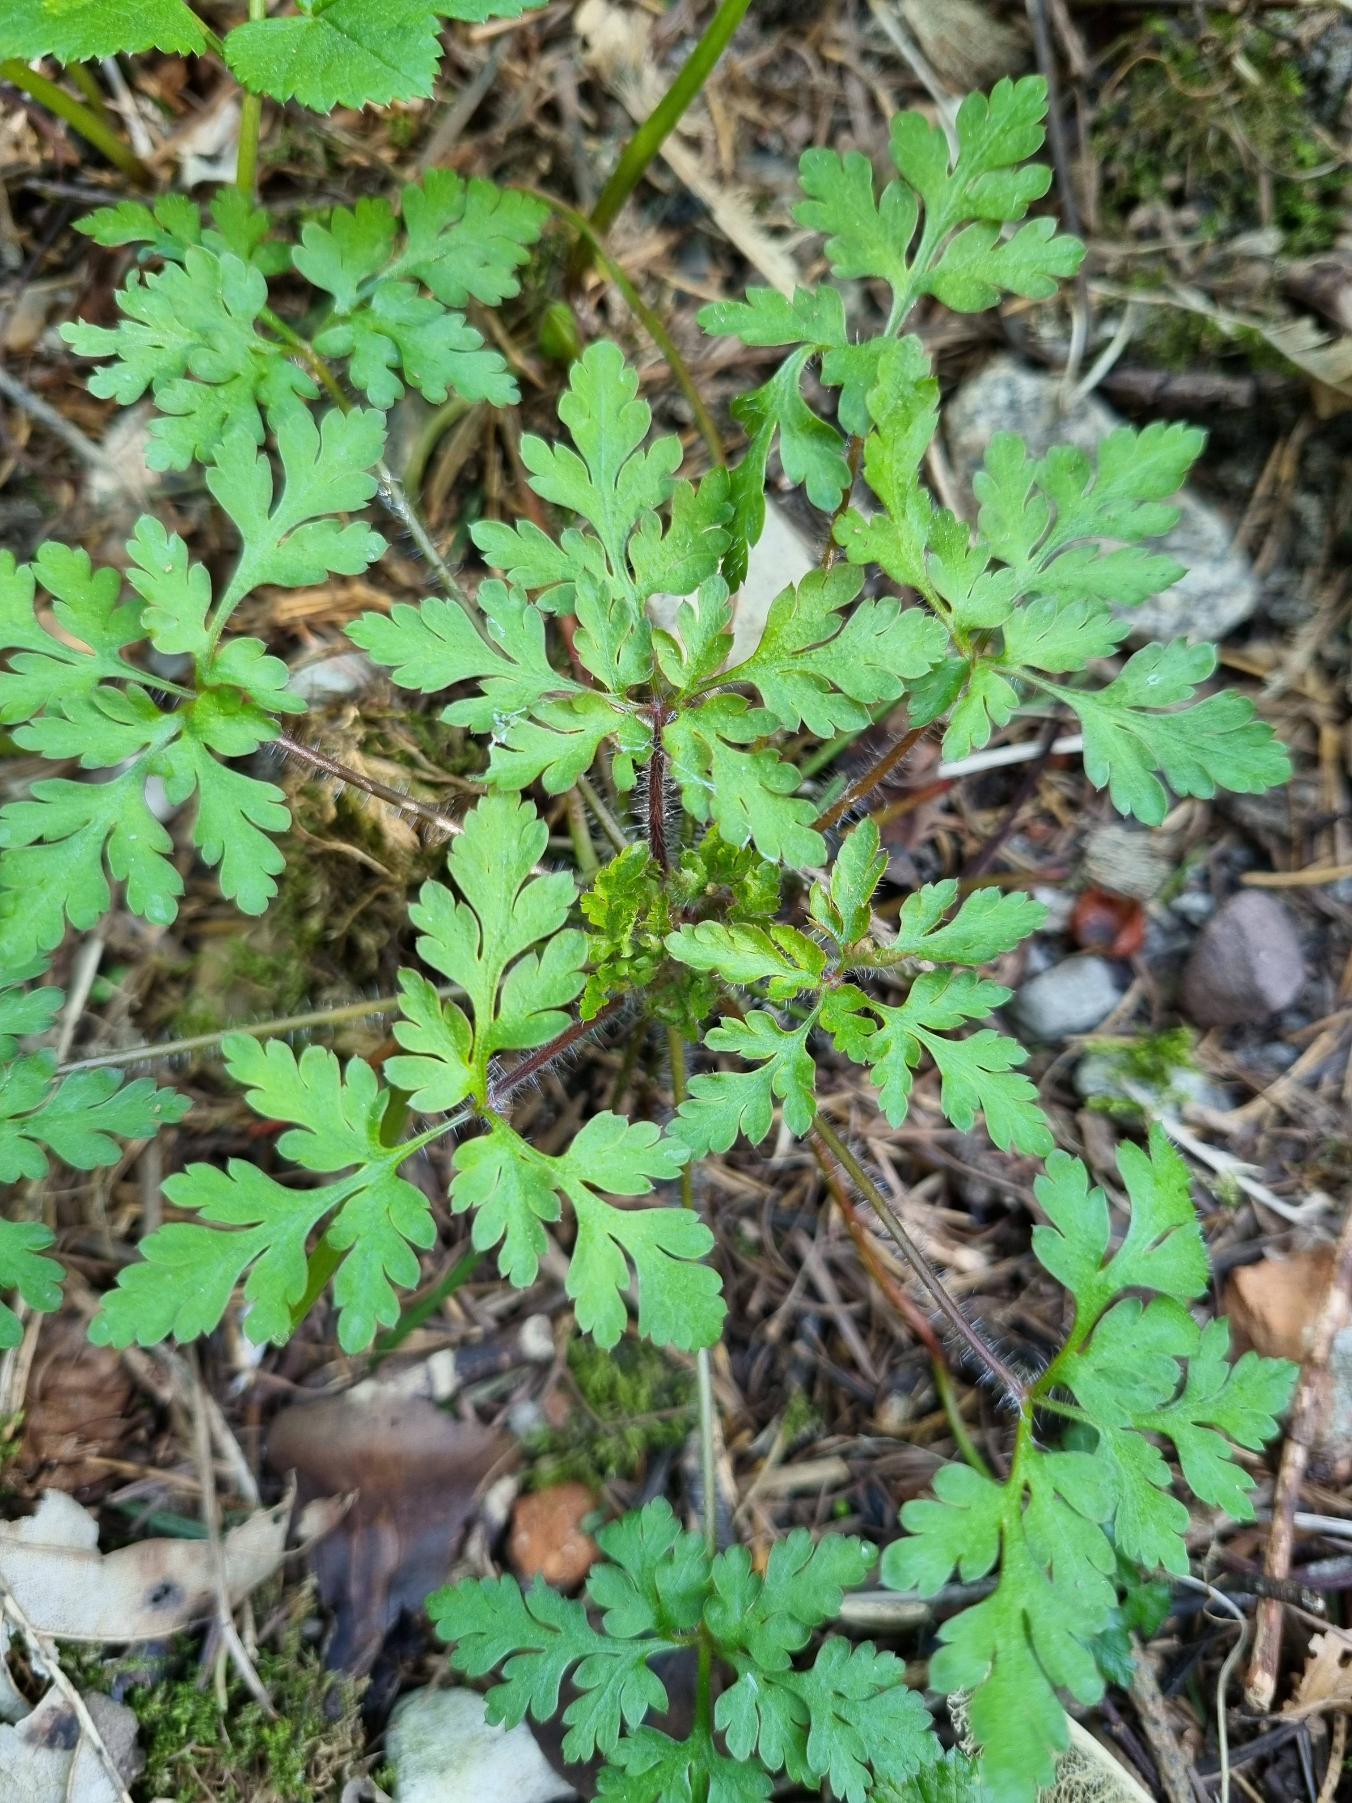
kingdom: Plantae
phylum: Tracheophyta
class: Magnoliopsida
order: Geraniales
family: Geraniaceae
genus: Geranium
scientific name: Geranium robertianum
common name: Stinkende storkenæb
